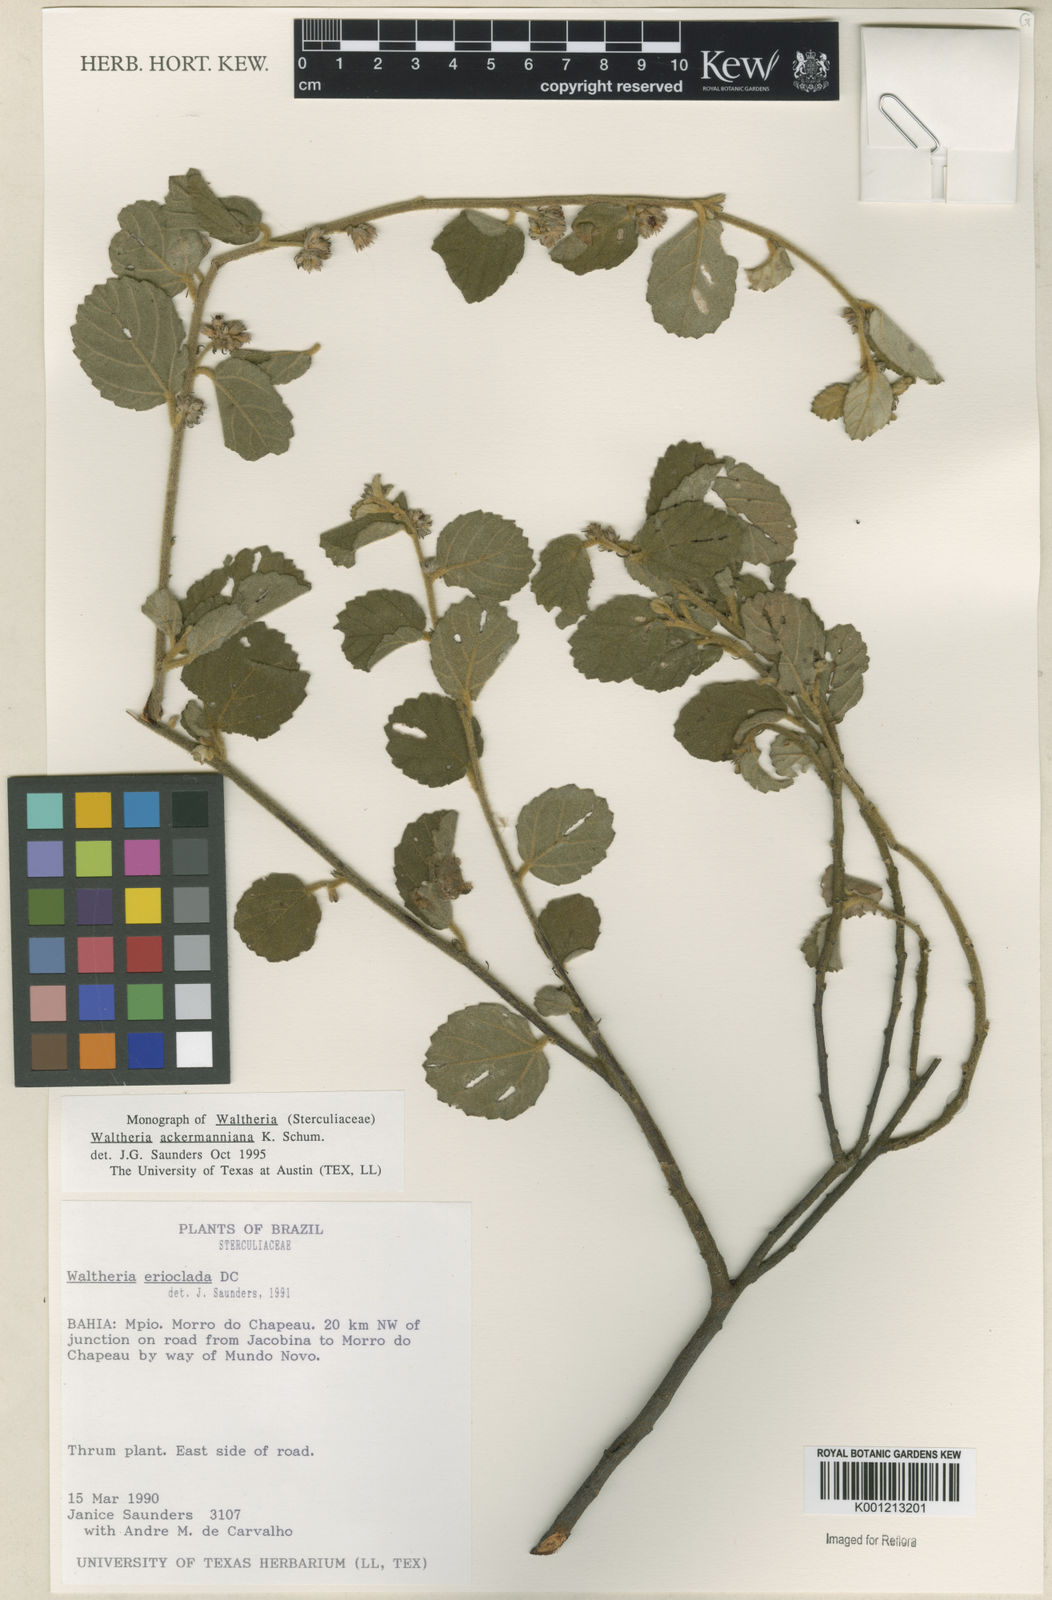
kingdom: Plantae
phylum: Tracheophyta
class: Magnoliopsida
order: Malvales
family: Malvaceae
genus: Waltheria
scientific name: Waltheria ackermanniana
